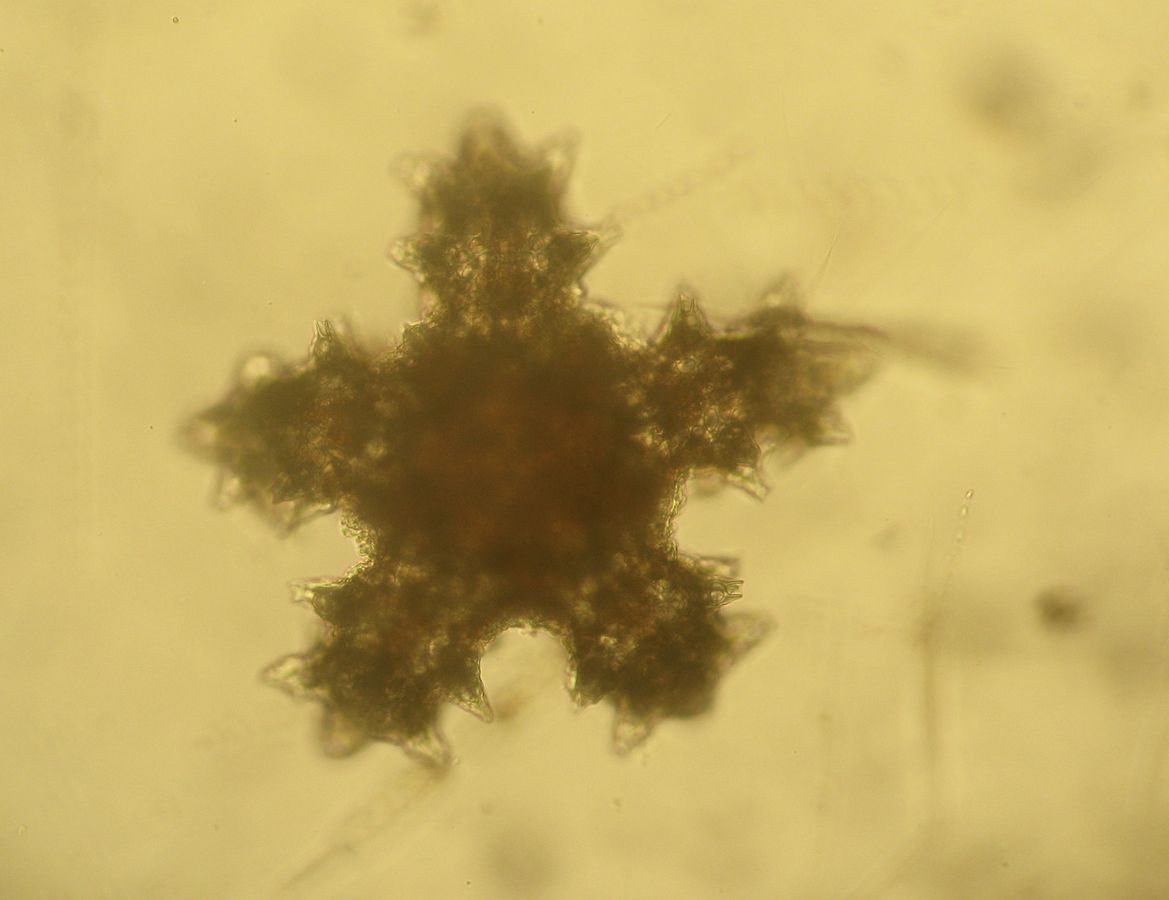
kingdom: Animalia
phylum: Echinodermata
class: Asteroidea
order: Forcipulatida
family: Asteriidae
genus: Asterias
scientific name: Asterias rubens
